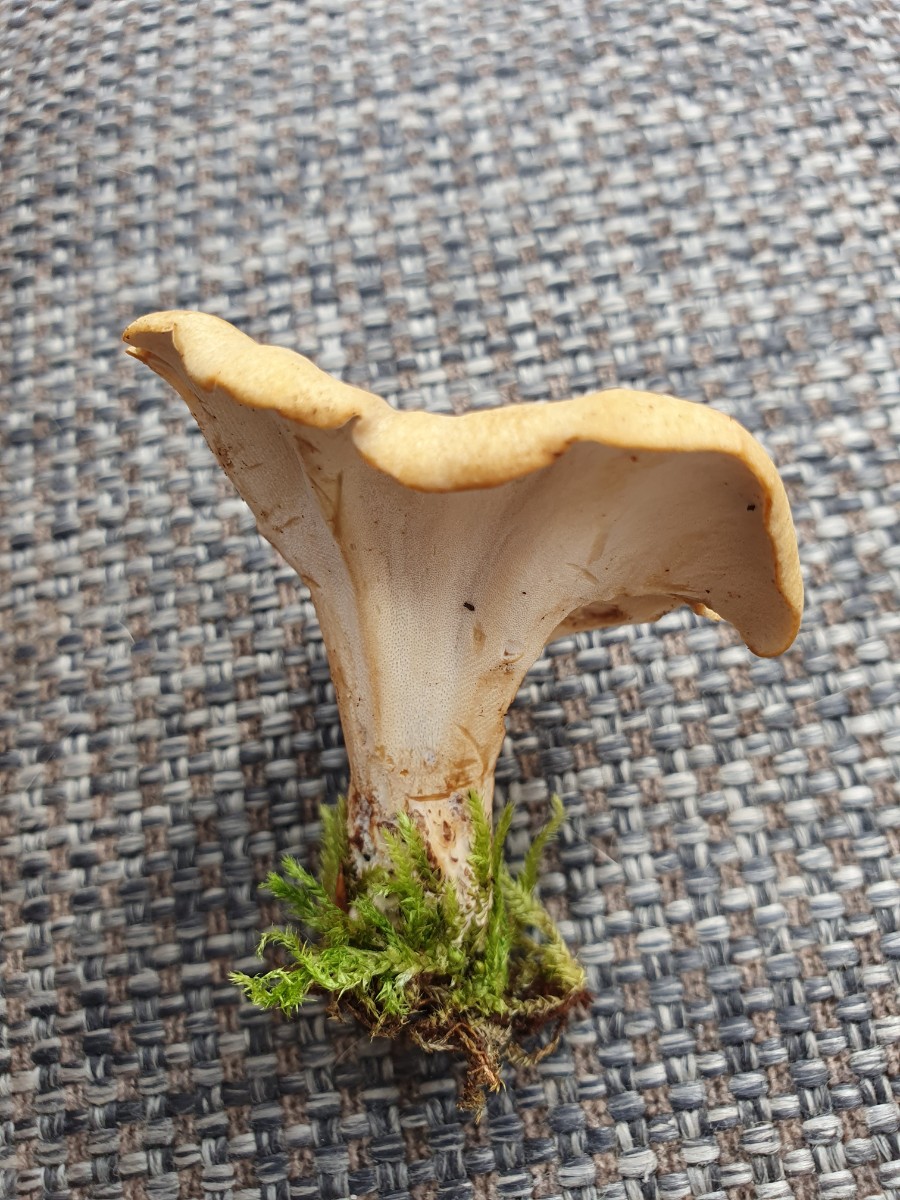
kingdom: Fungi
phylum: Basidiomycota
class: Agaricomycetes
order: Polyporales
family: Polyporaceae
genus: Cerioporus
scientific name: Cerioporus varius
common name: foranderlig stilkporesvamp
